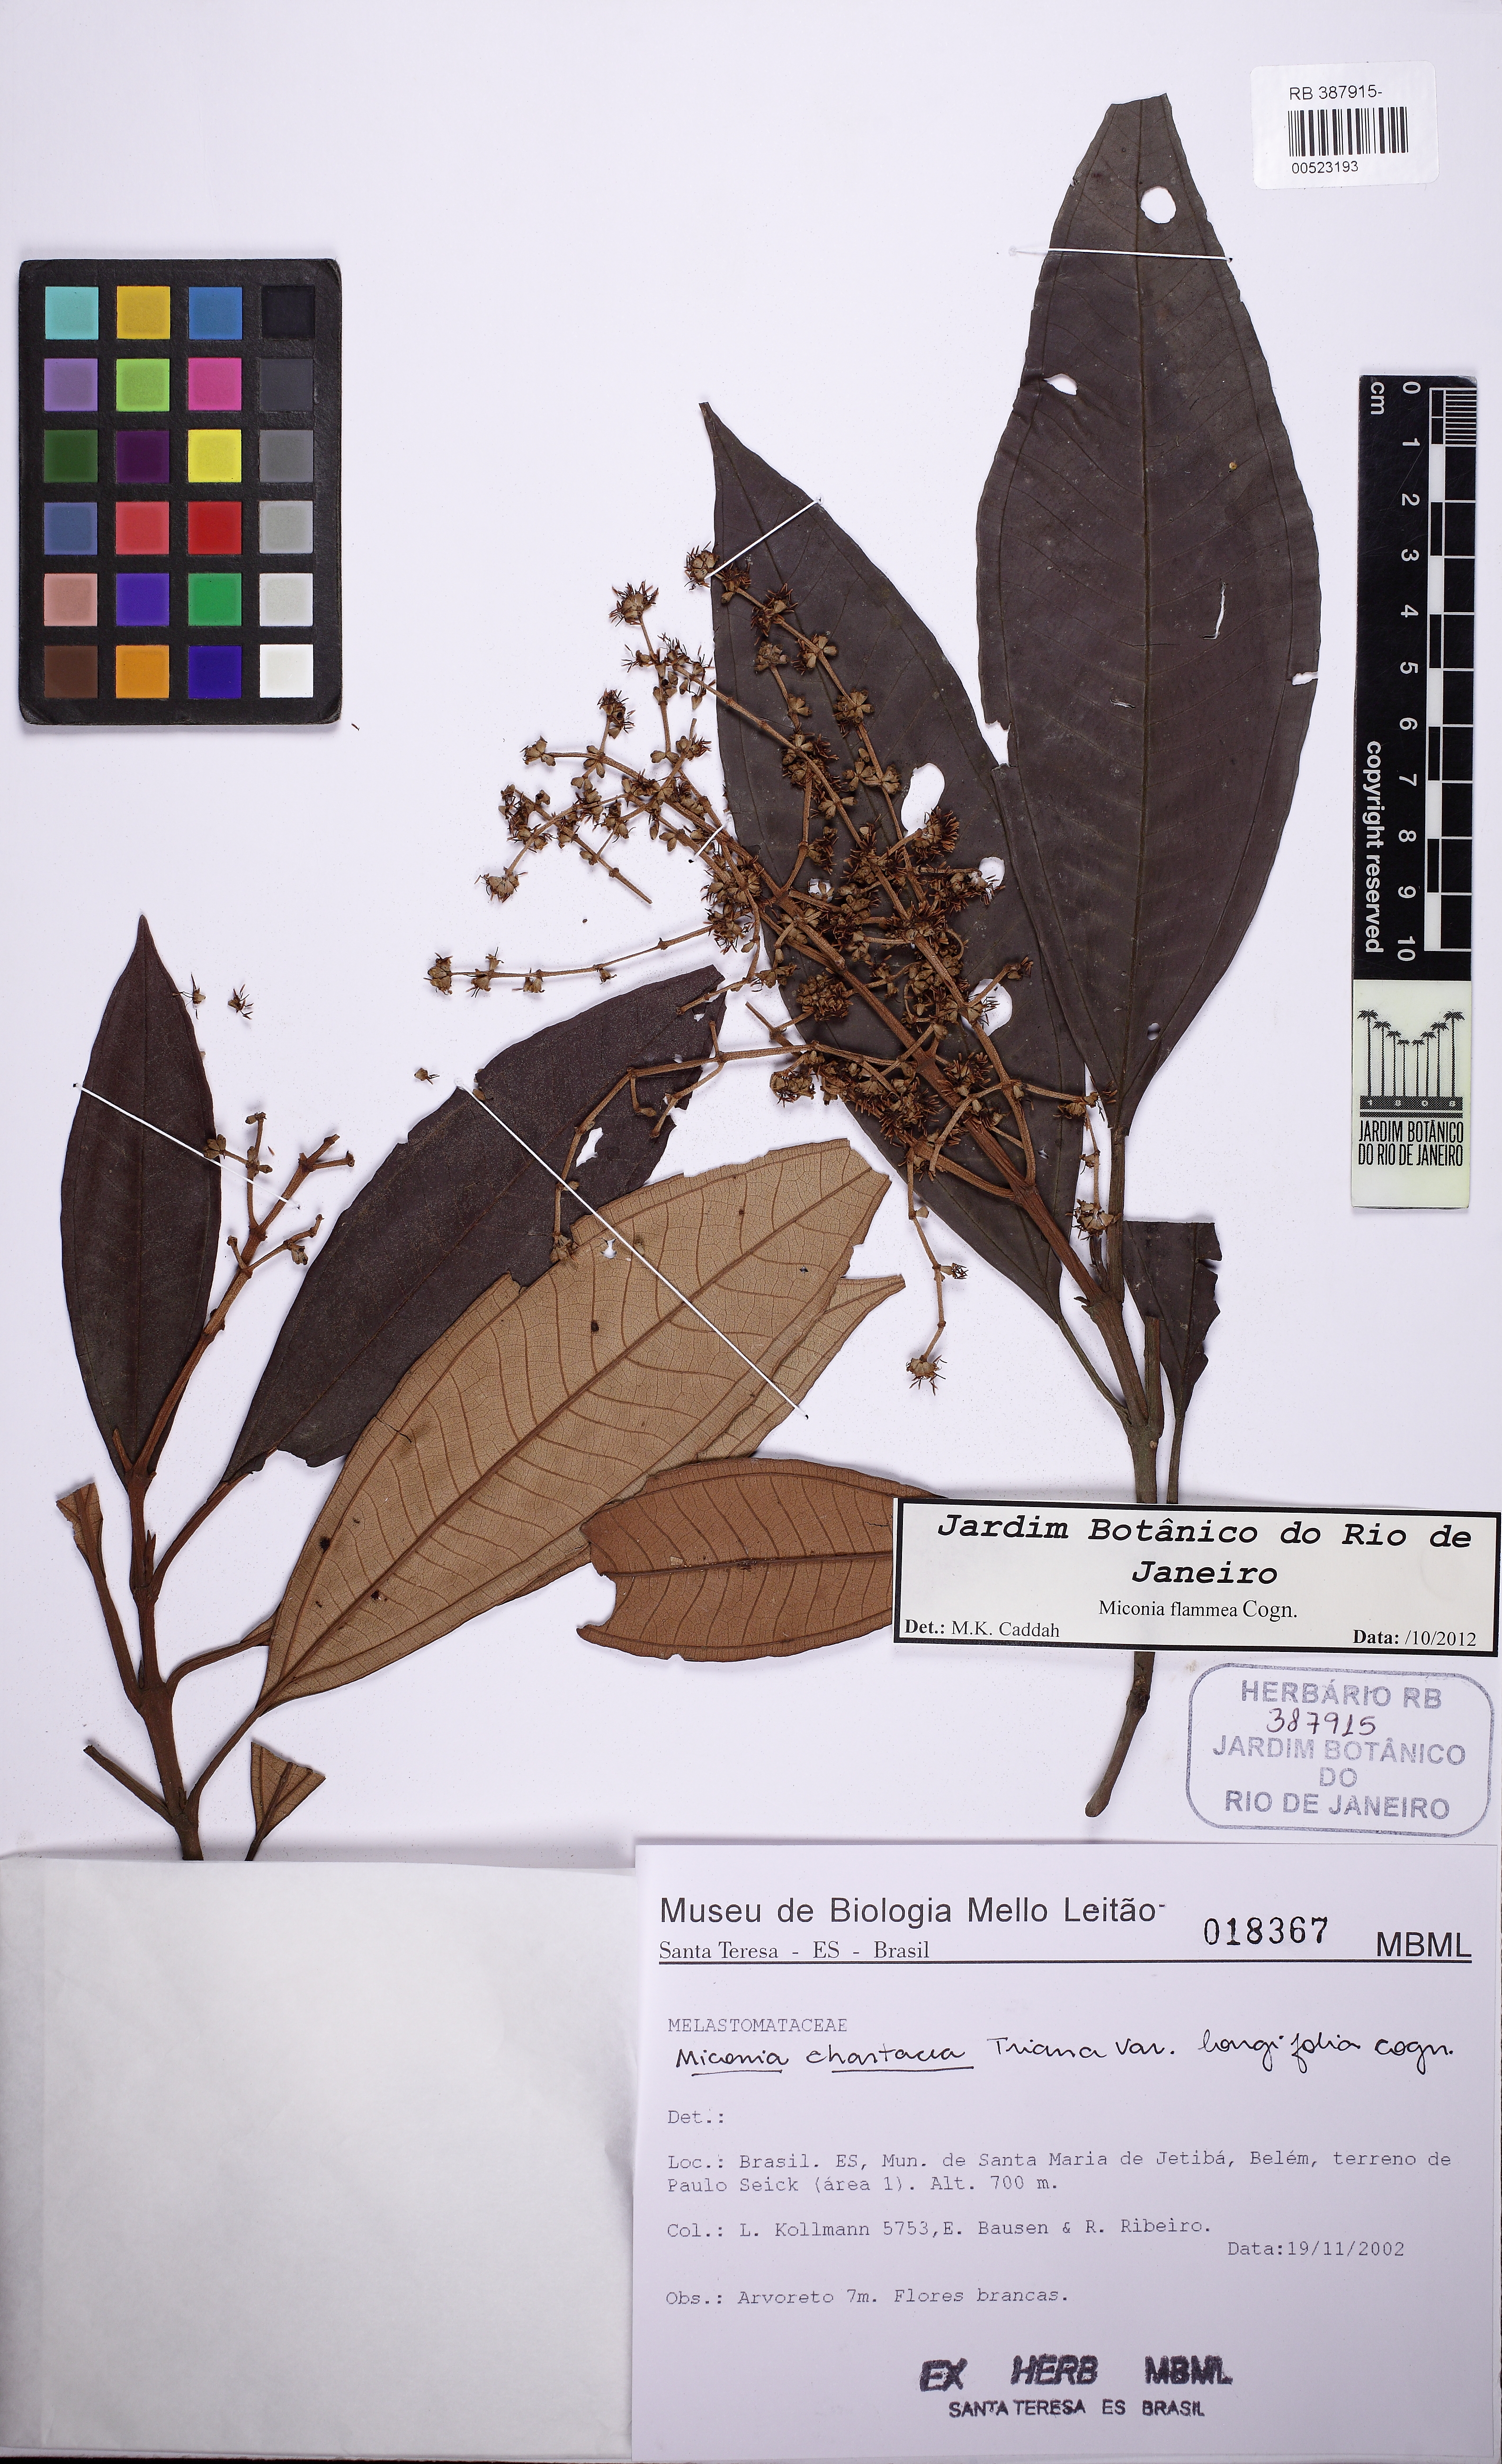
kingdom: Plantae
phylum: Tracheophyta
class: Magnoliopsida
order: Myrtales
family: Melastomataceae
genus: Miconia
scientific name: Miconia flammea
